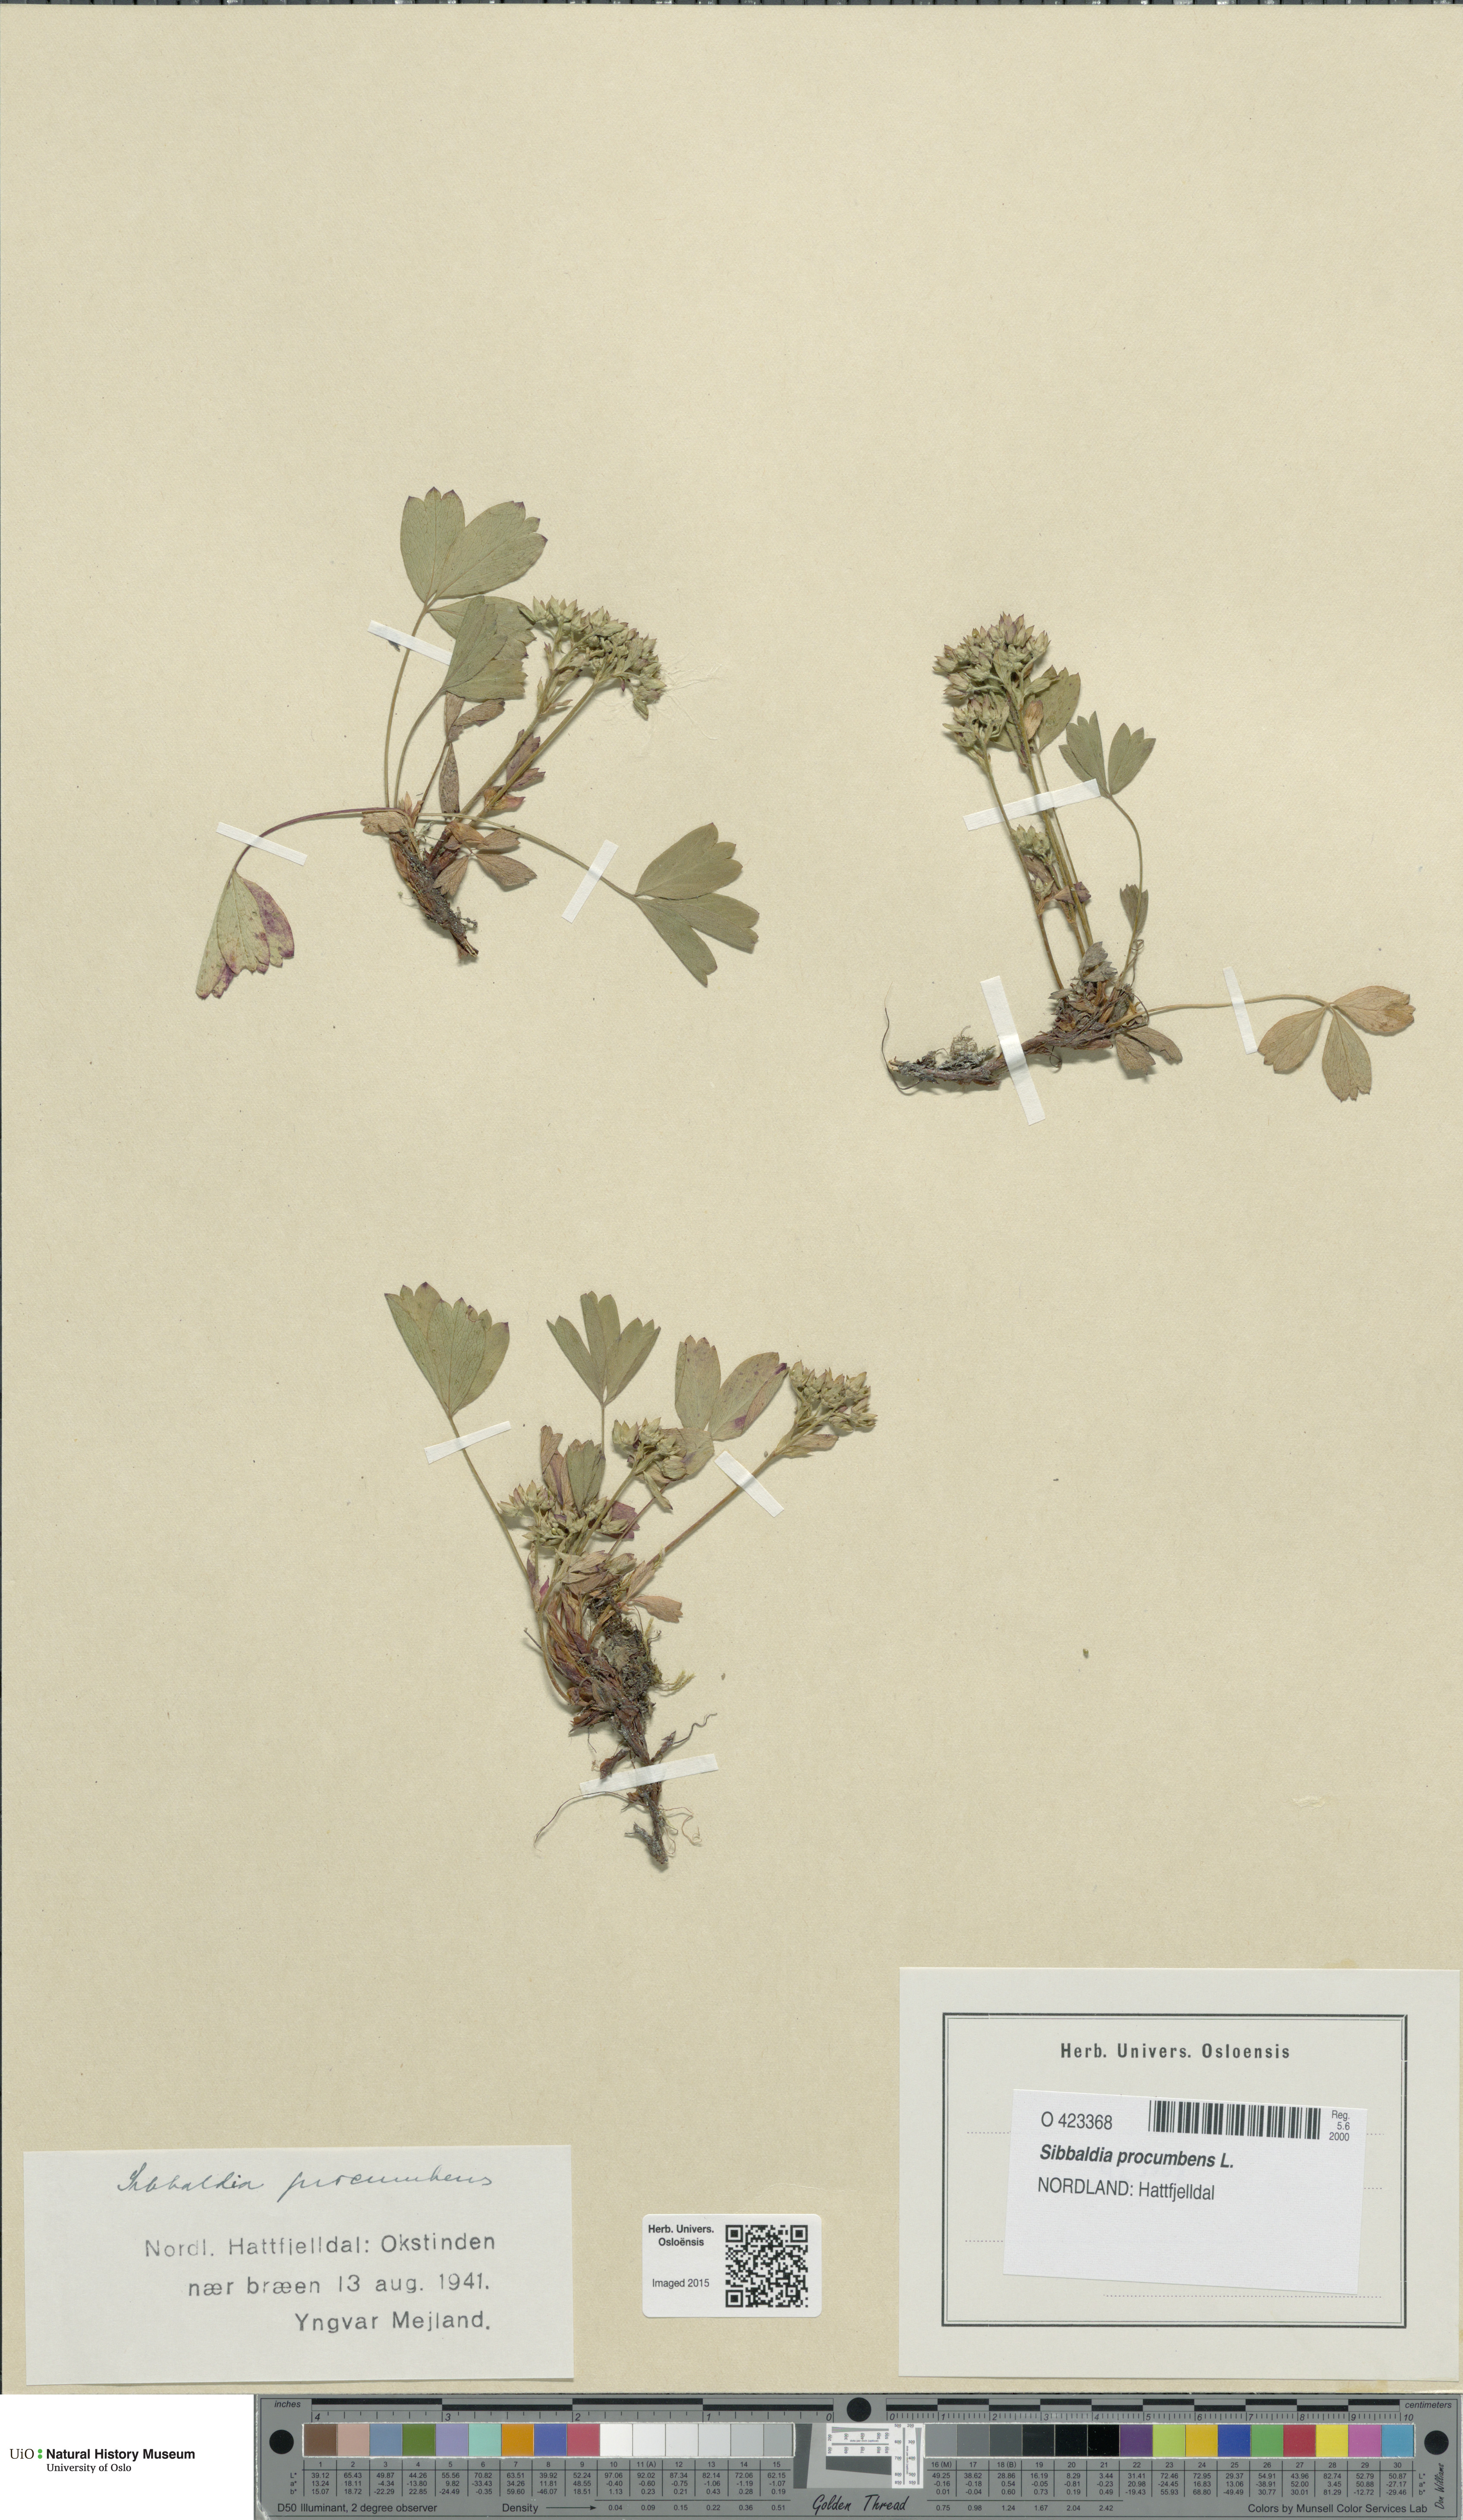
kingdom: Plantae
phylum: Tracheophyta
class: Magnoliopsida
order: Rosales
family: Rosaceae
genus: Sibbaldia
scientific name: Sibbaldia procumbens
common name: Creeping sibbaldia
